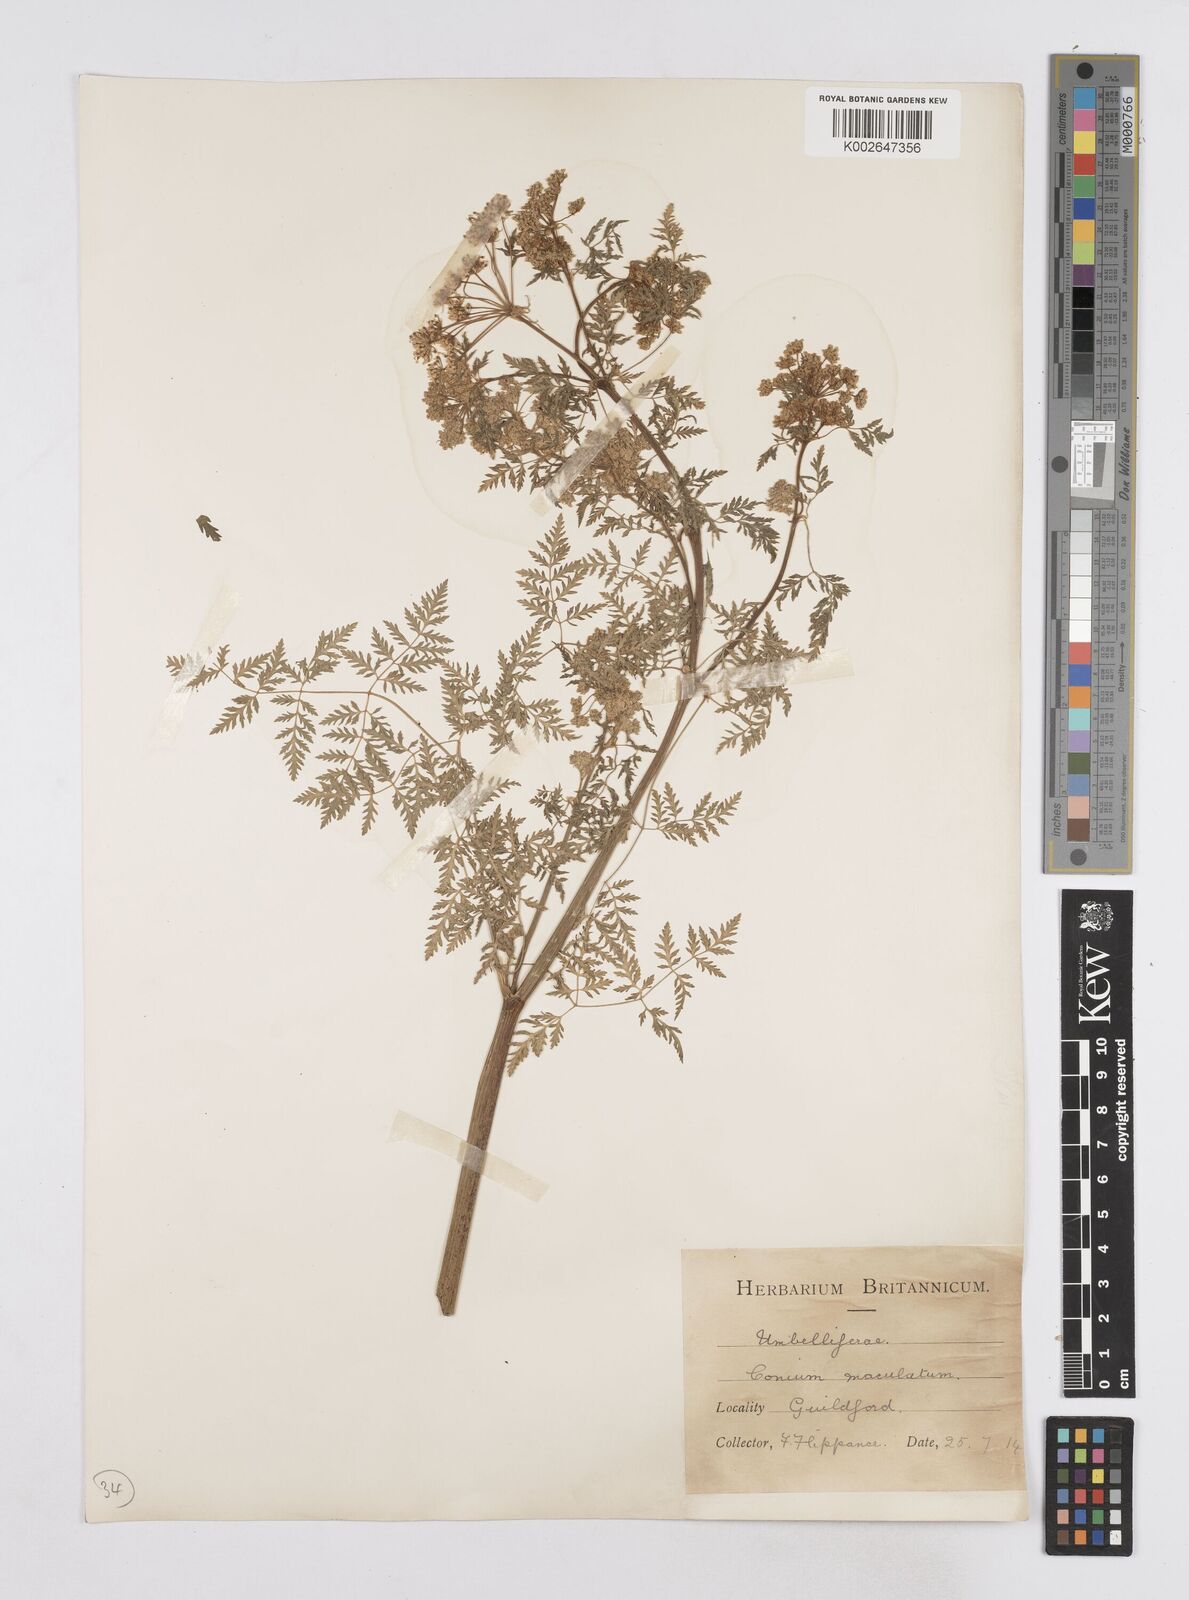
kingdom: Plantae
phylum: Tracheophyta
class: Magnoliopsida
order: Apiales
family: Apiaceae
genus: Conium
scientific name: Conium maculatum
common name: Hemlock
